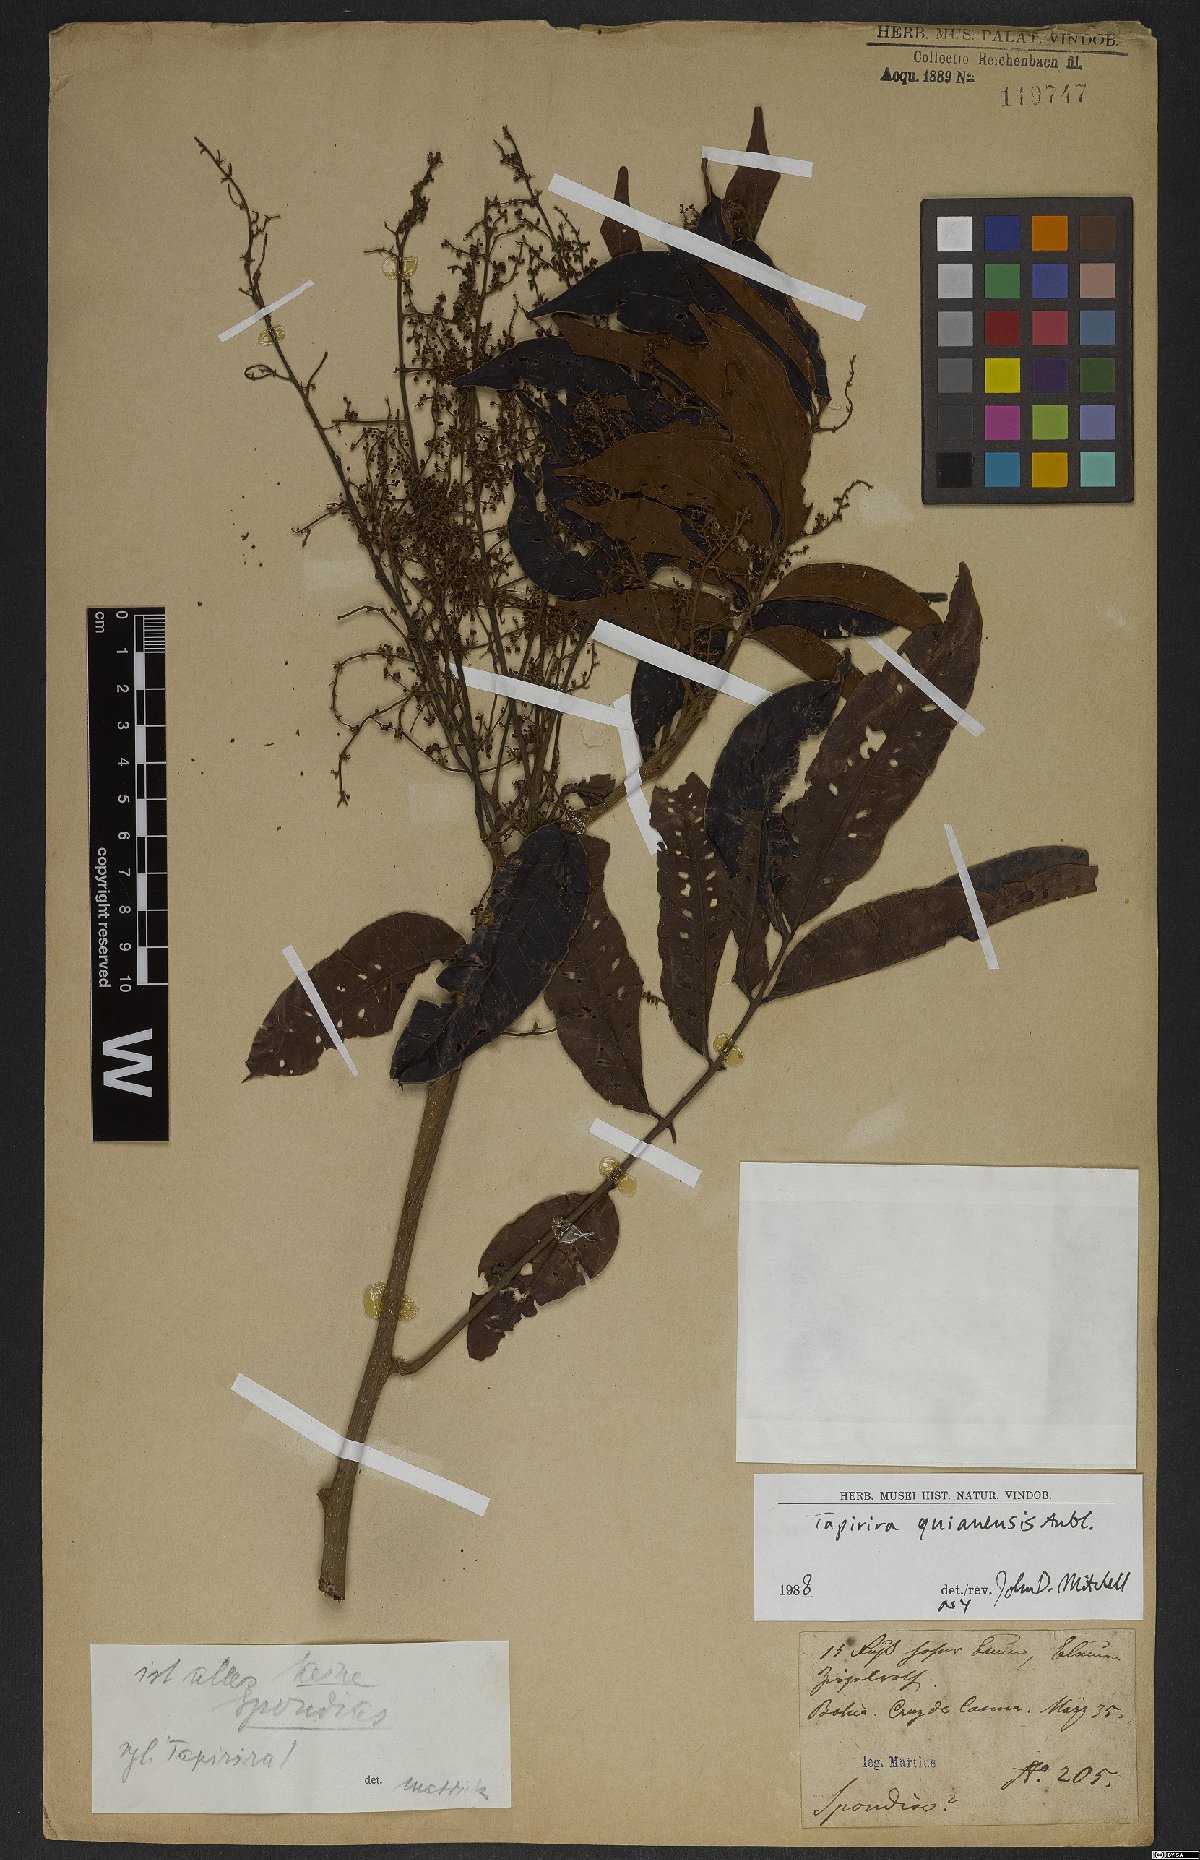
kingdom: Plantae
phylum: Tracheophyta
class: Magnoliopsida
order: Sapindales
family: Anacardiaceae
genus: Tapirira
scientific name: Tapirira guianensis
